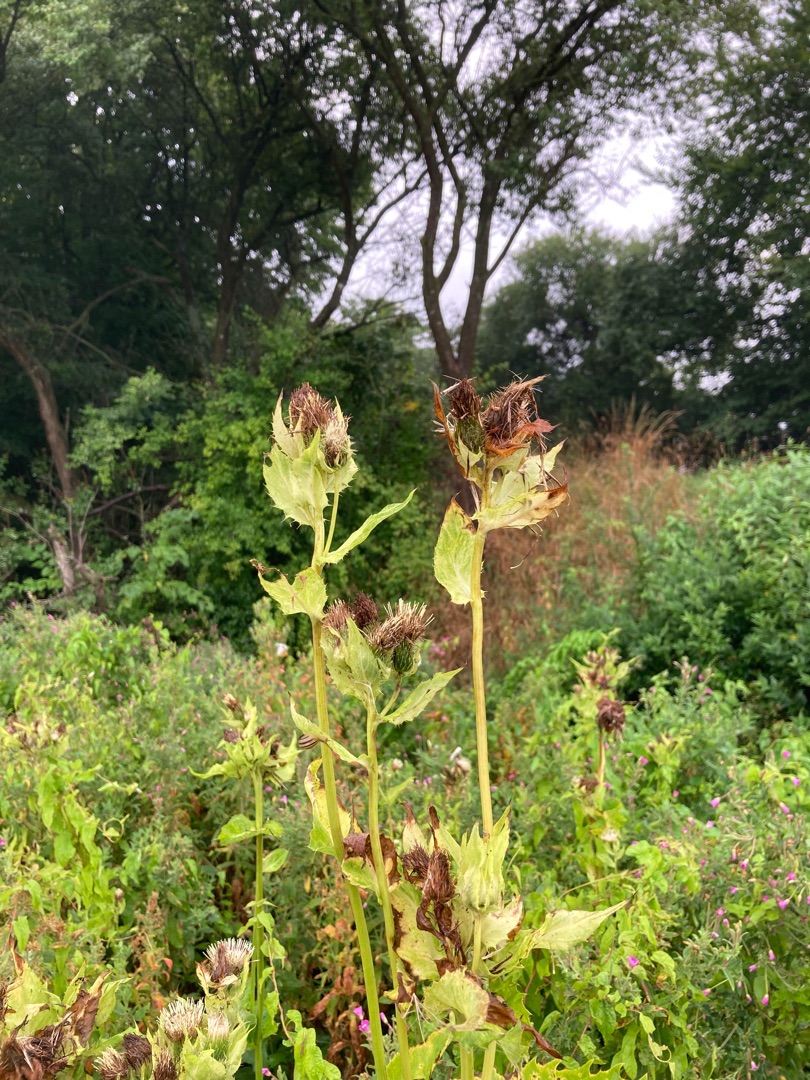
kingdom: Plantae
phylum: Tracheophyta
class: Magnoliopsida
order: Asterales
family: Asteraceae
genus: Cirsium
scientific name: Cirsium oleraceum
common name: Kål-tidsel
